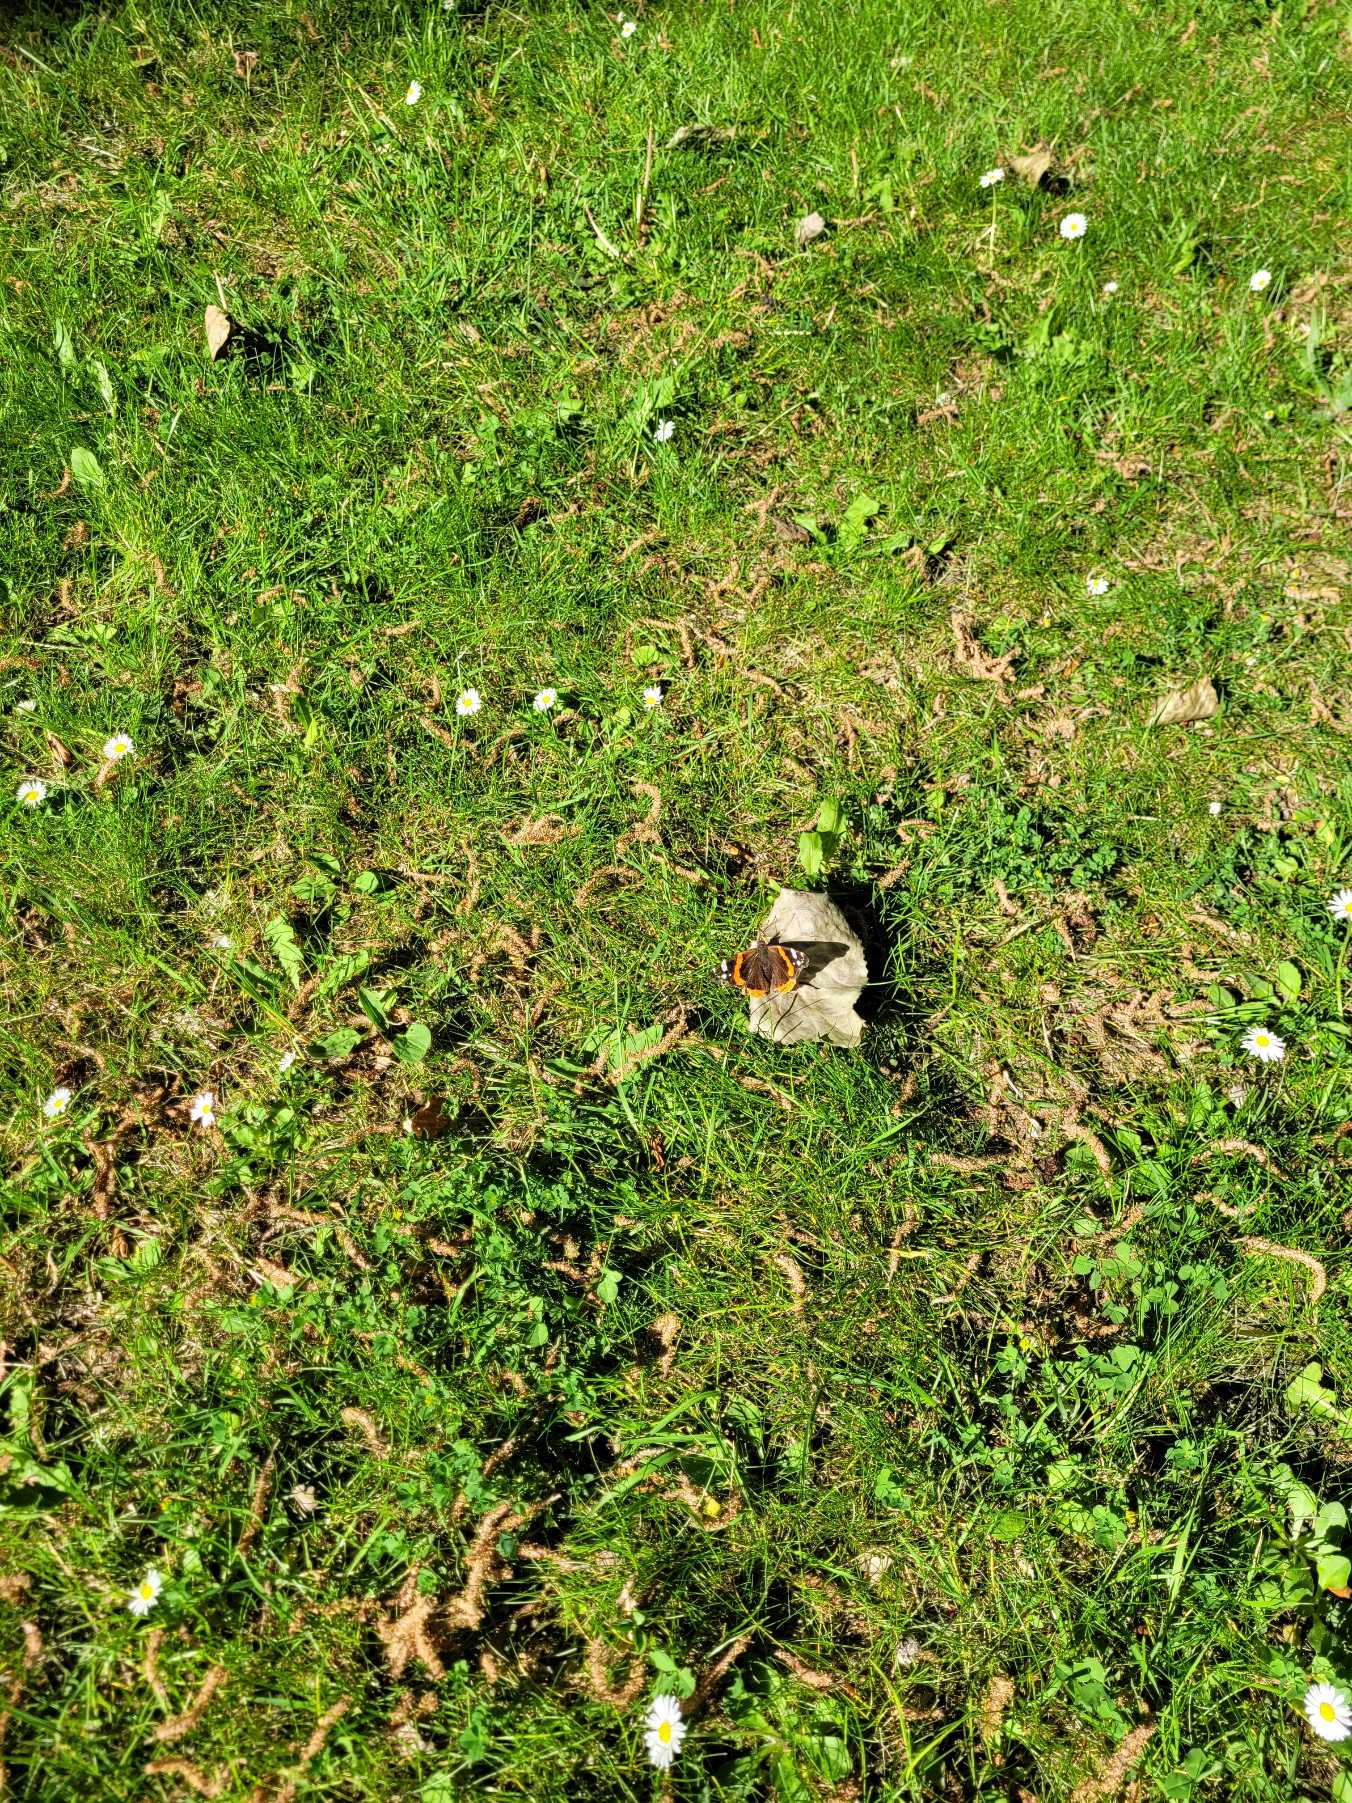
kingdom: Animalia
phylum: Arthropoda
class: Insecta
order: Lepidoptera
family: Nymphalidae
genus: Vanessa
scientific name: Vanessa atalanta
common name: Admiral
